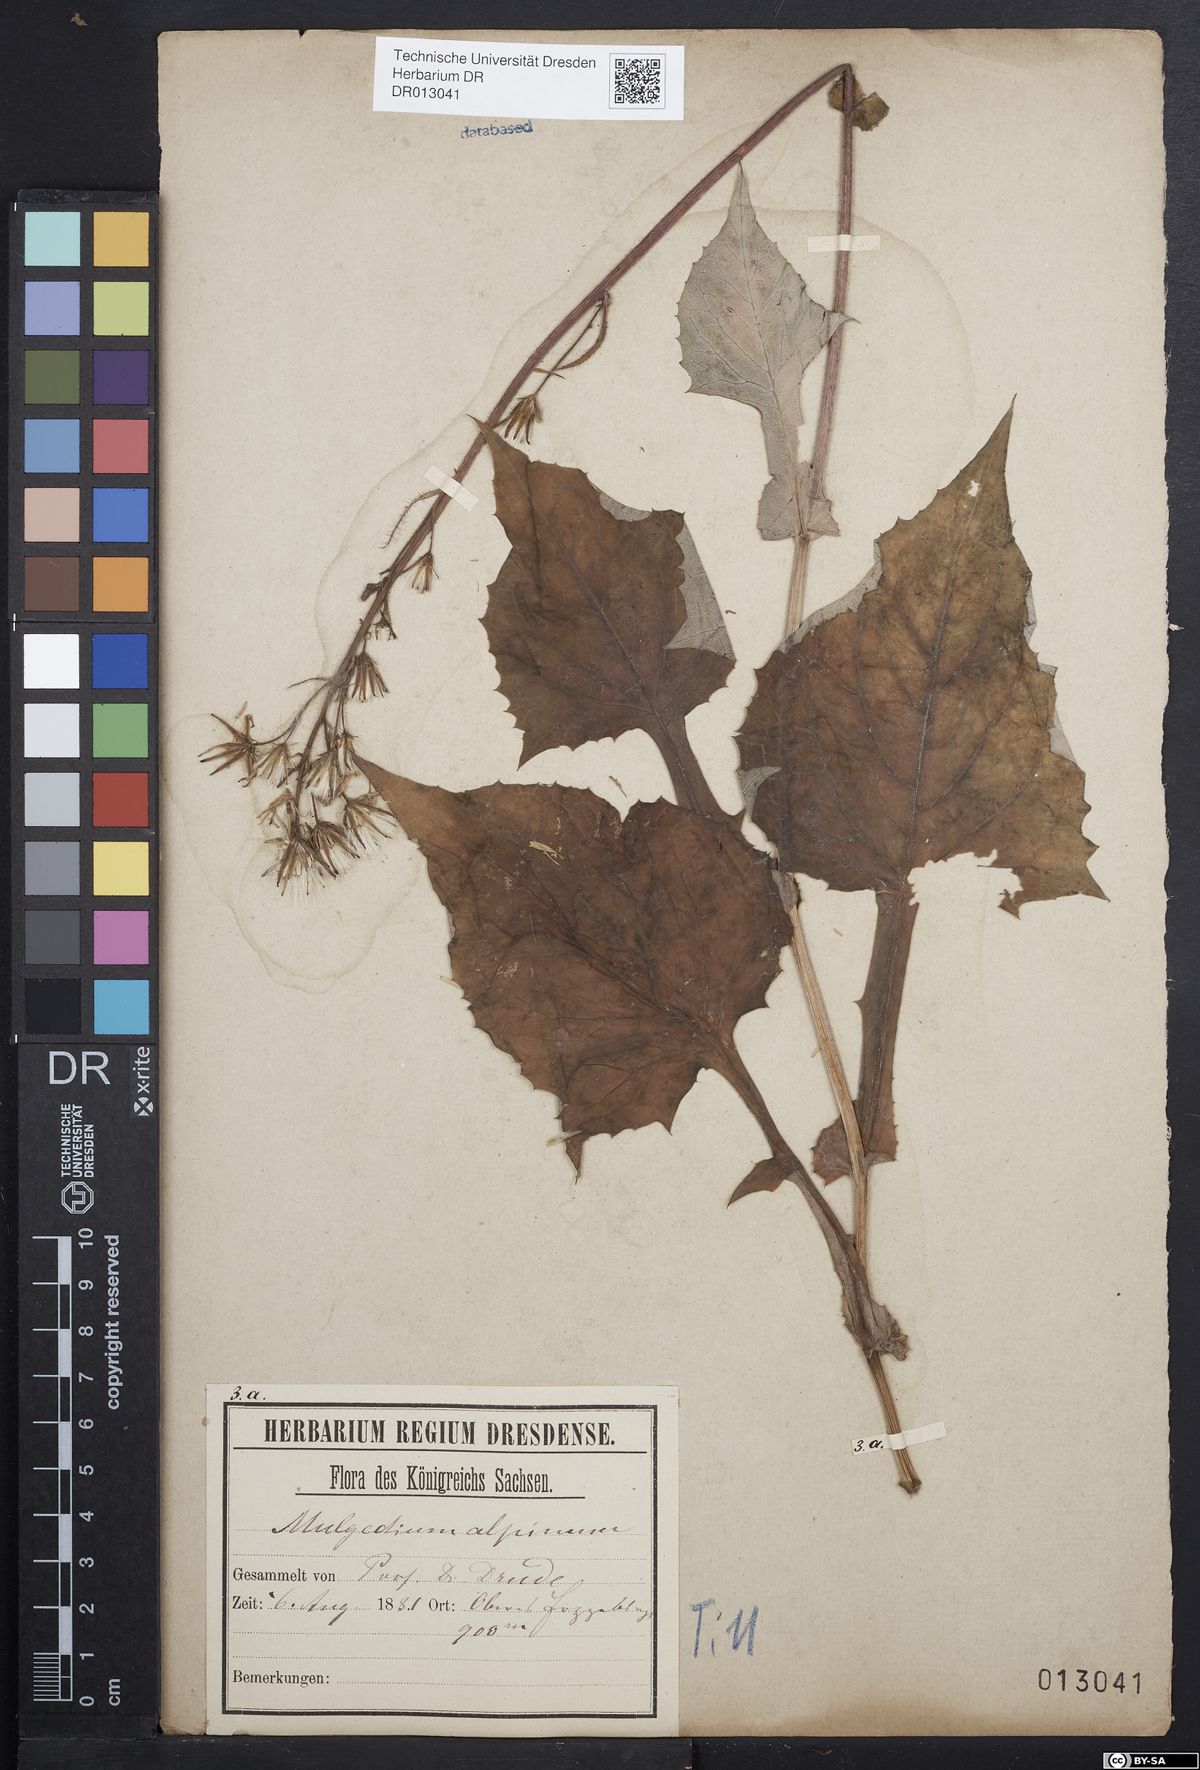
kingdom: Plantae
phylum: Tracheophyta
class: Magnoliopsida
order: Asterales
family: Asteraceae
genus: Cicerbita
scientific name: Cicerbita alpina
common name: Alpine blue-sow-thistle
